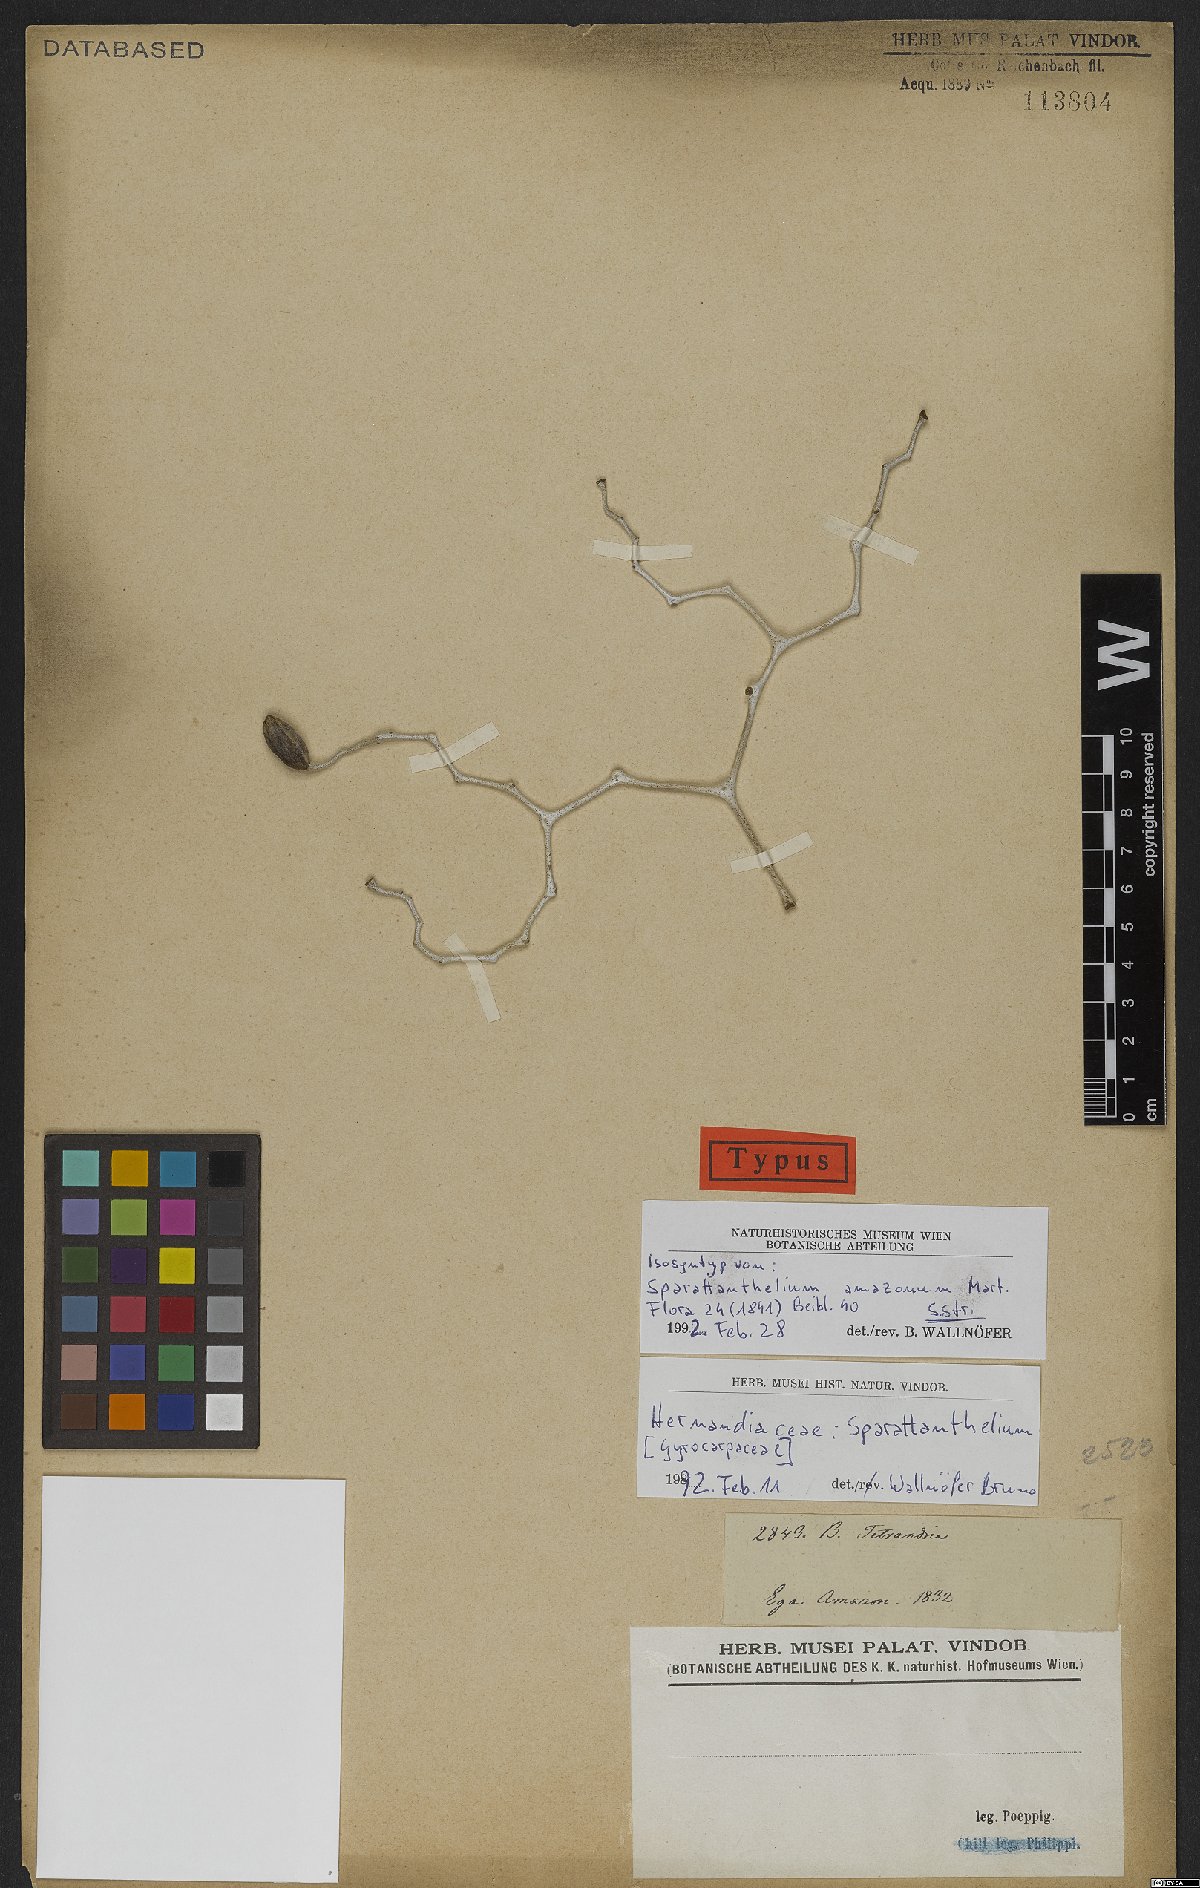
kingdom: Plantae
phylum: Tracheophyta
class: Magnoliopsida
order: Laurales
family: Hernandiaceae
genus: Sparattanthelium
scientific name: Sparattanthelium amazonum
